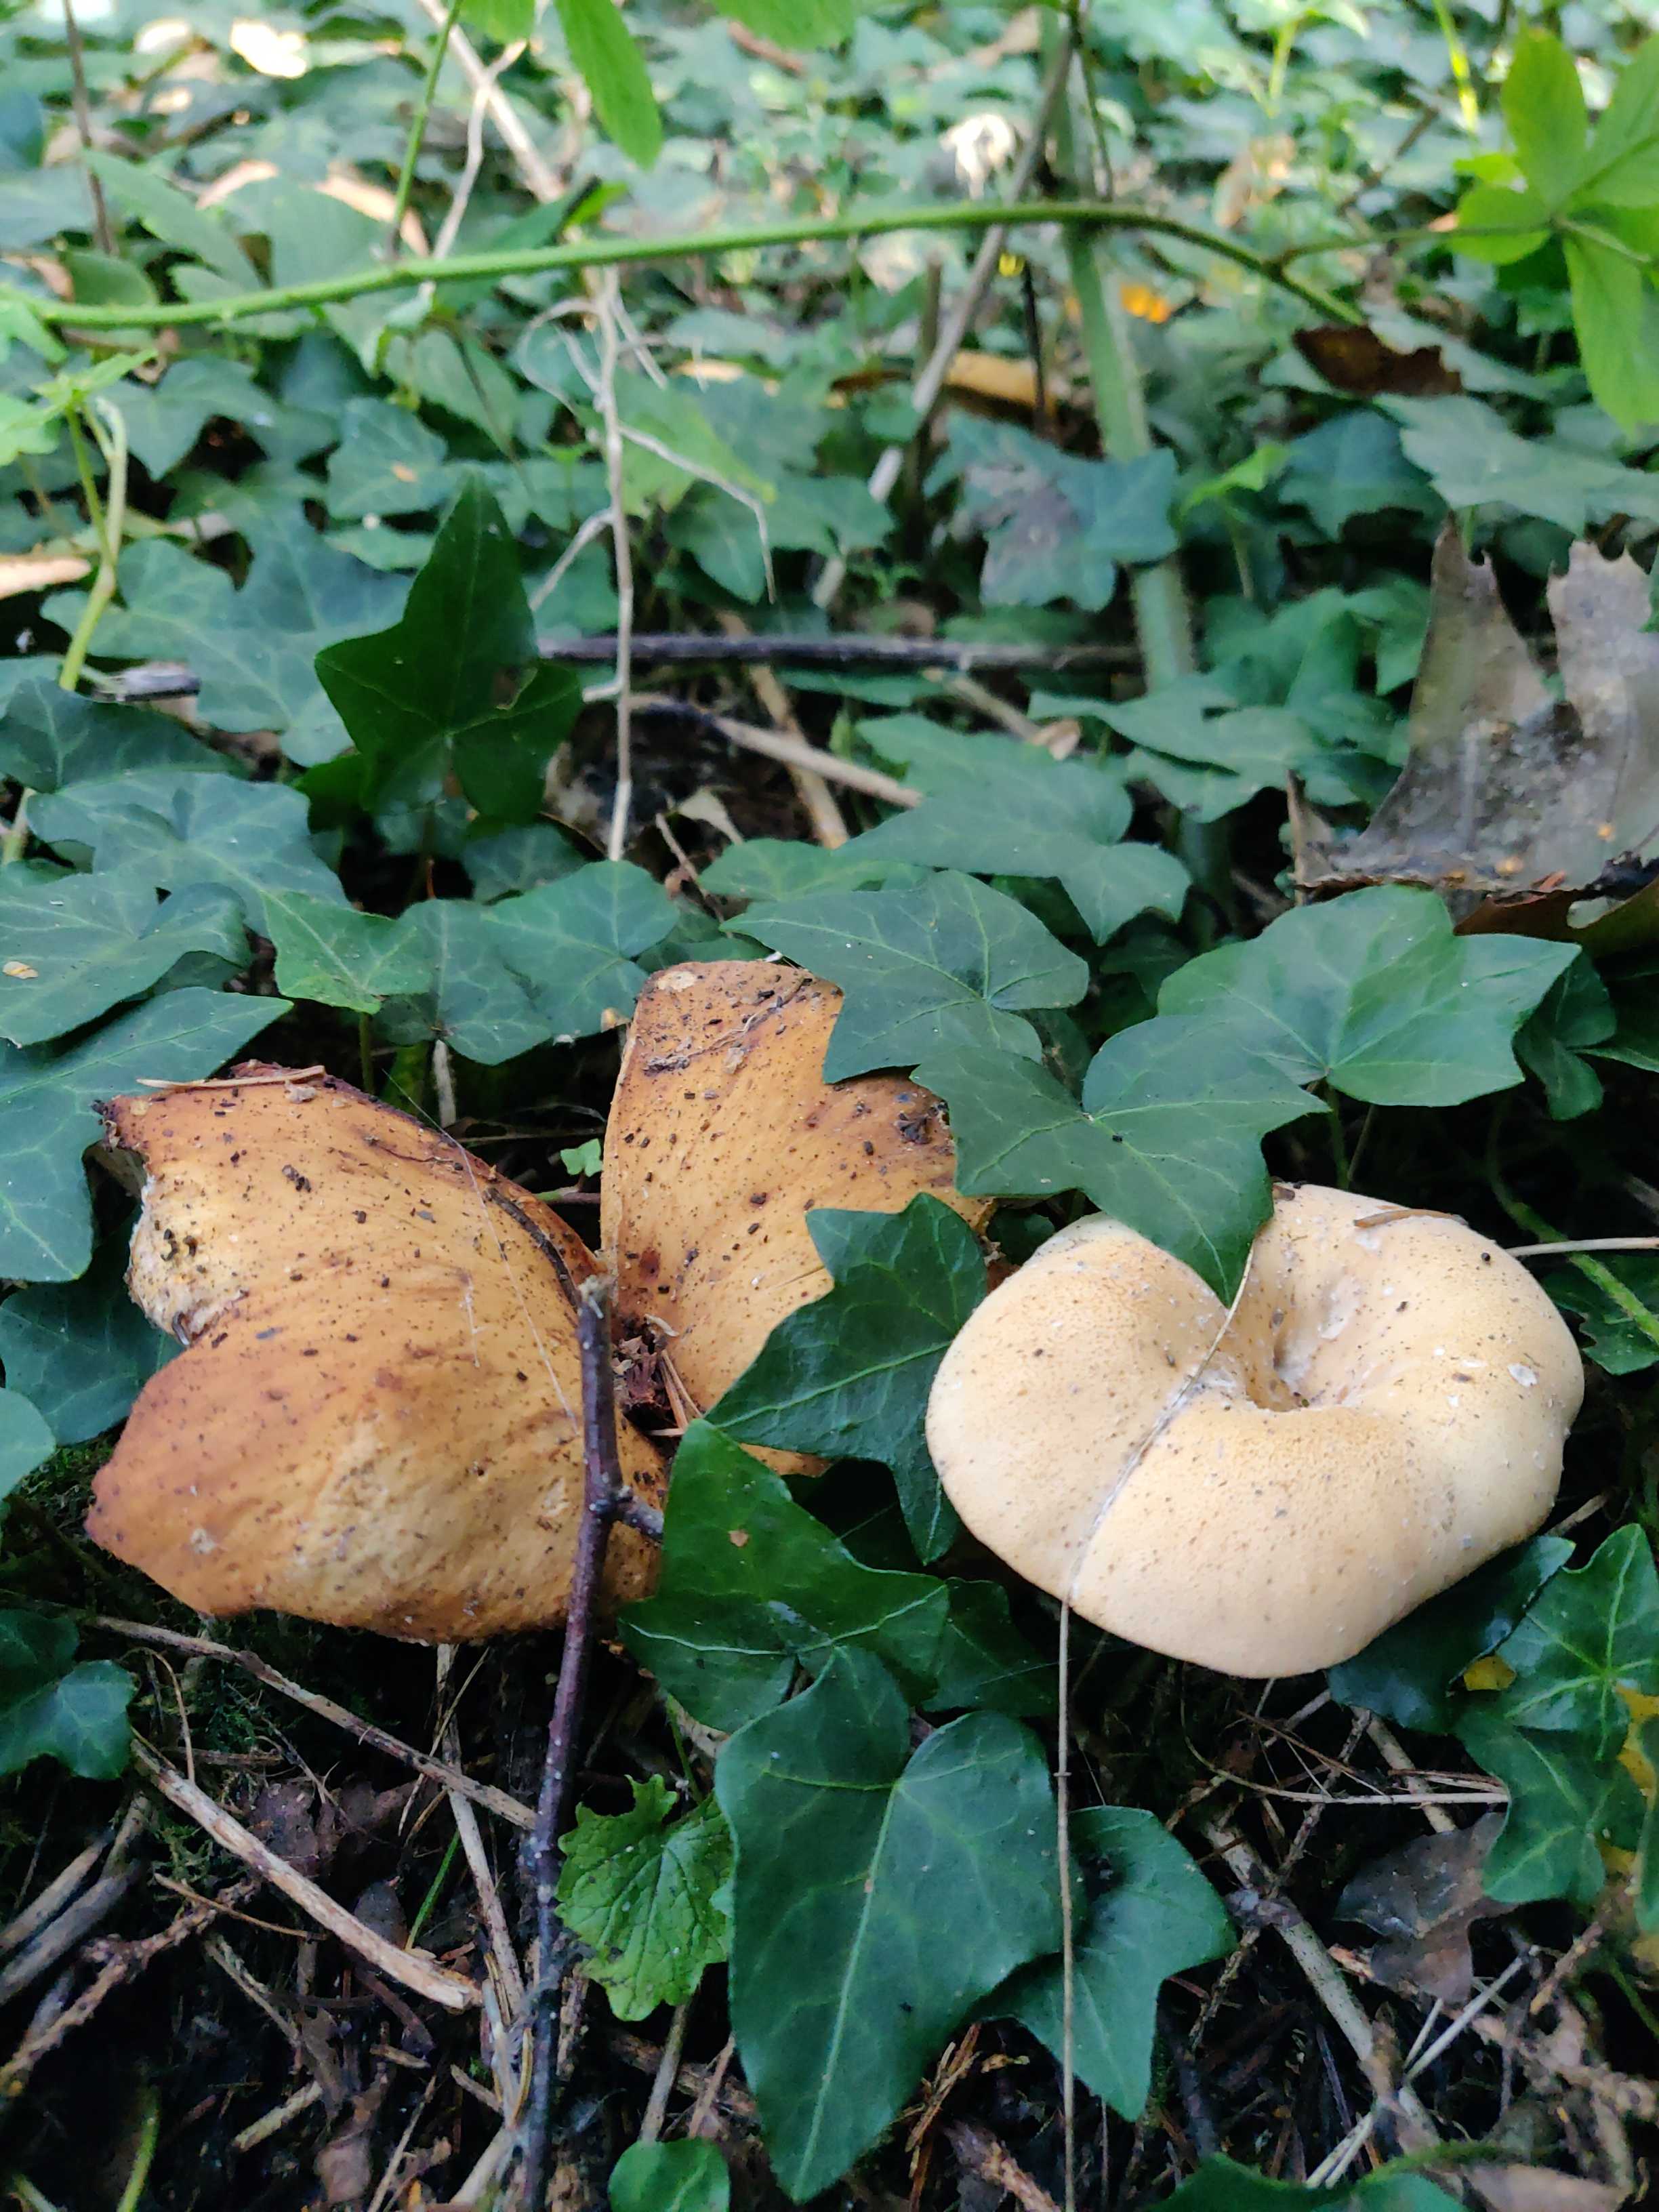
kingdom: Fungi
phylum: Basidiomycota
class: Agaricomycetes
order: Agaricales
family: Tricholomataceae
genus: Paralepista
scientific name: Paralepista gilva
